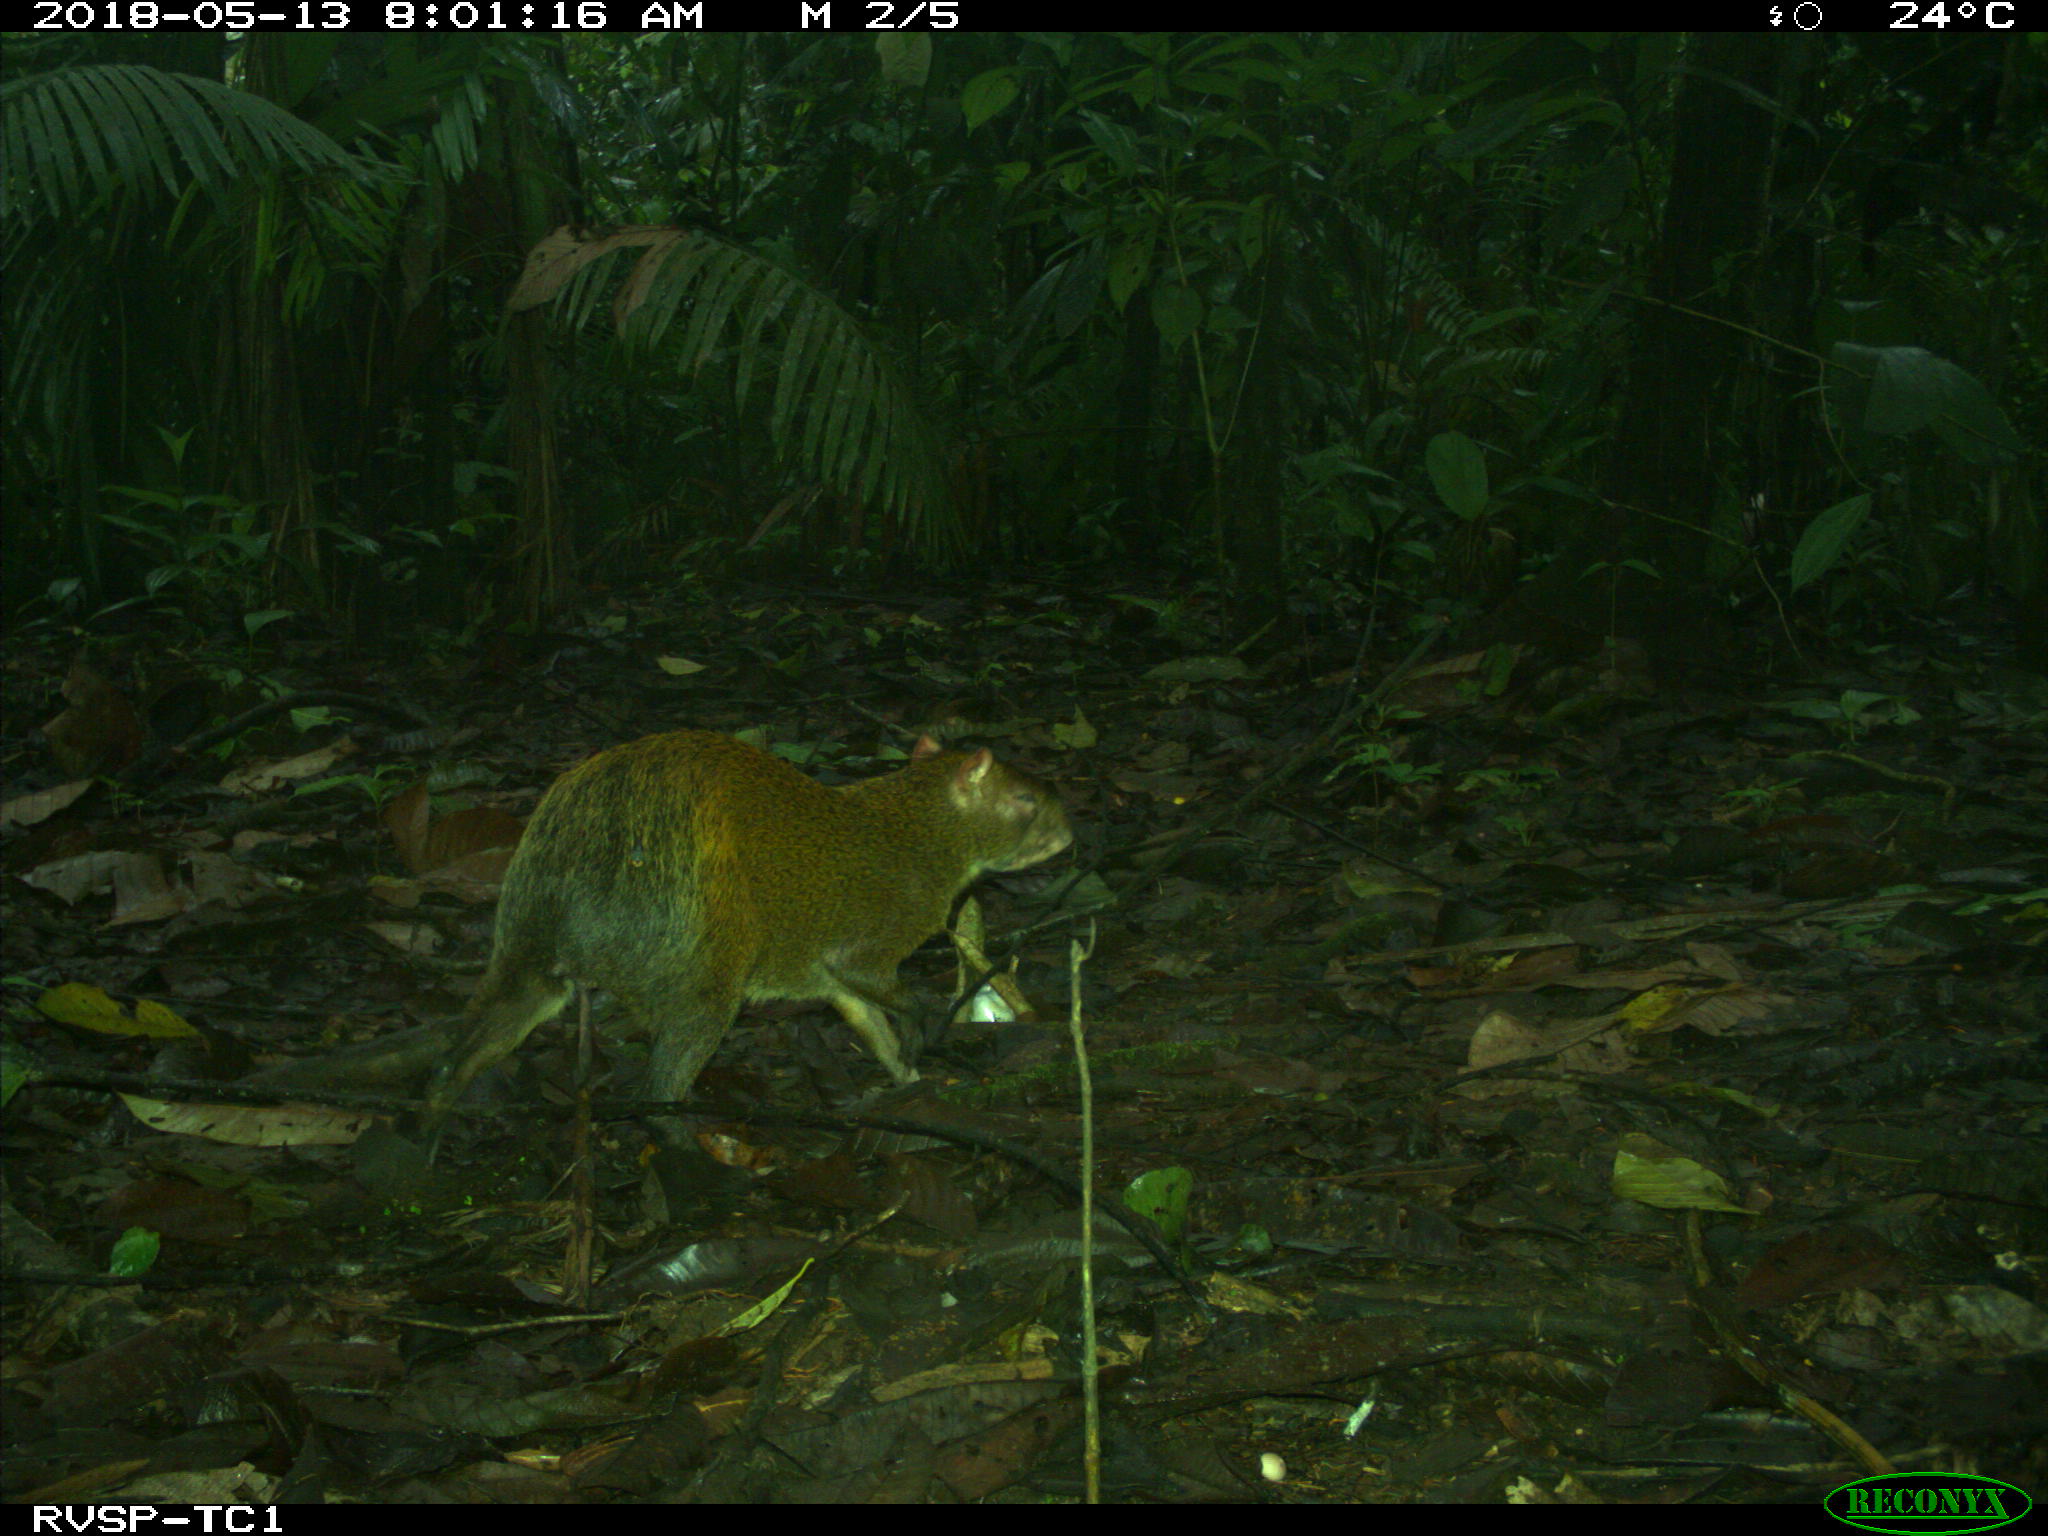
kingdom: Animalia
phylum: Chordata
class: Mammalia
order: Rodentia
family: Dasyproctidae
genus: Dasyprocta
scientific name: Dasyprocta punctata
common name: Central american agouti
